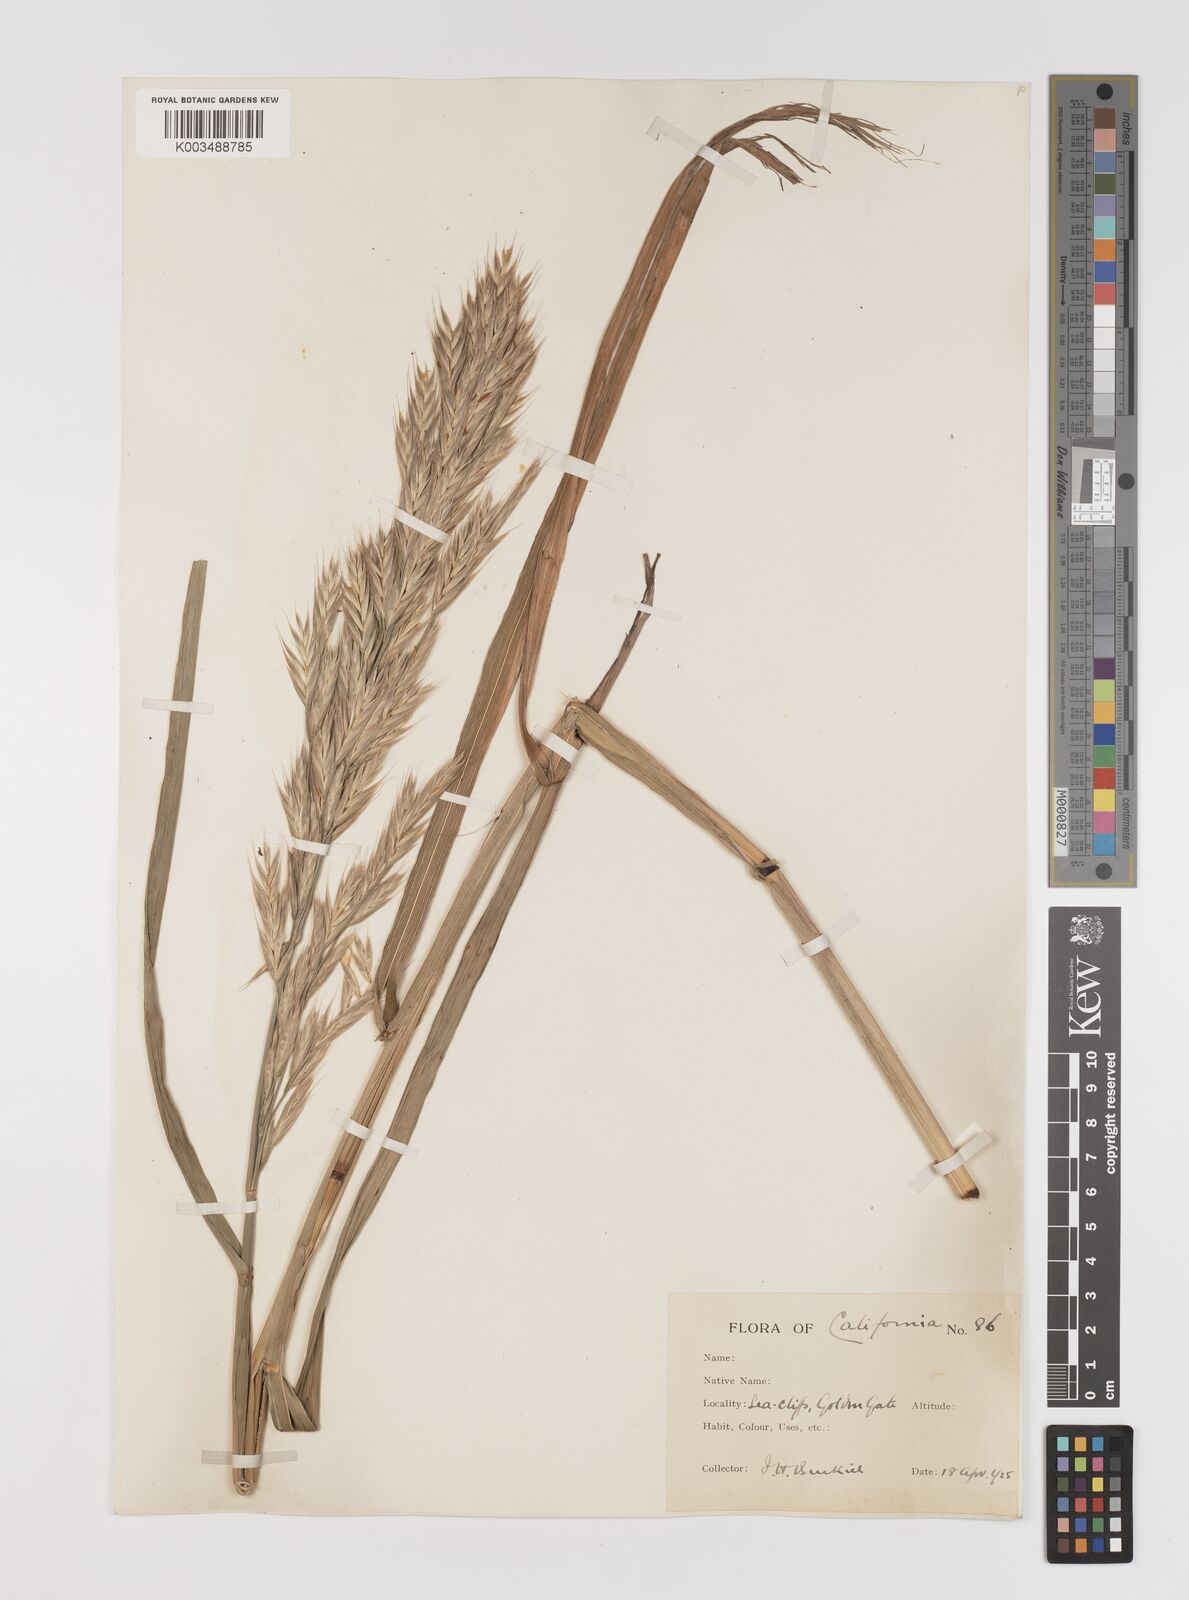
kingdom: Plantae
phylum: Tracheophyta
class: Liliopsida
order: Poales
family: Poaceae
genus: Bromus
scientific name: Bromus
